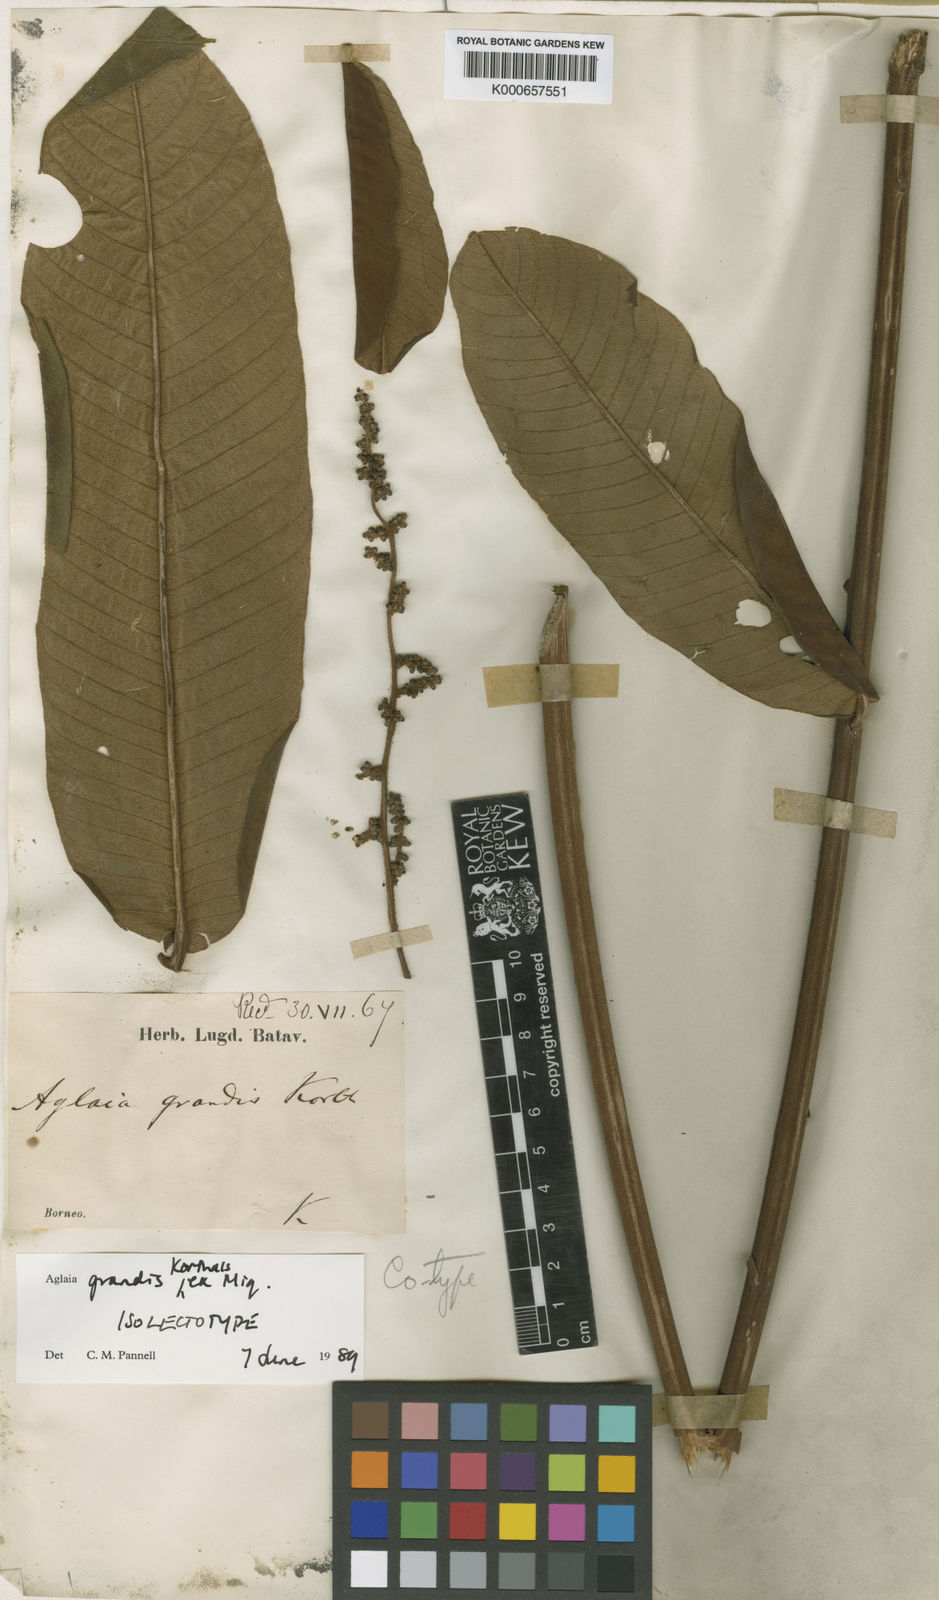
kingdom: Plantae
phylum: Tracheophyta
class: Magnoliopsida
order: Sapindales
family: Meliaceae
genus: Aglaia
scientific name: Aglaia
